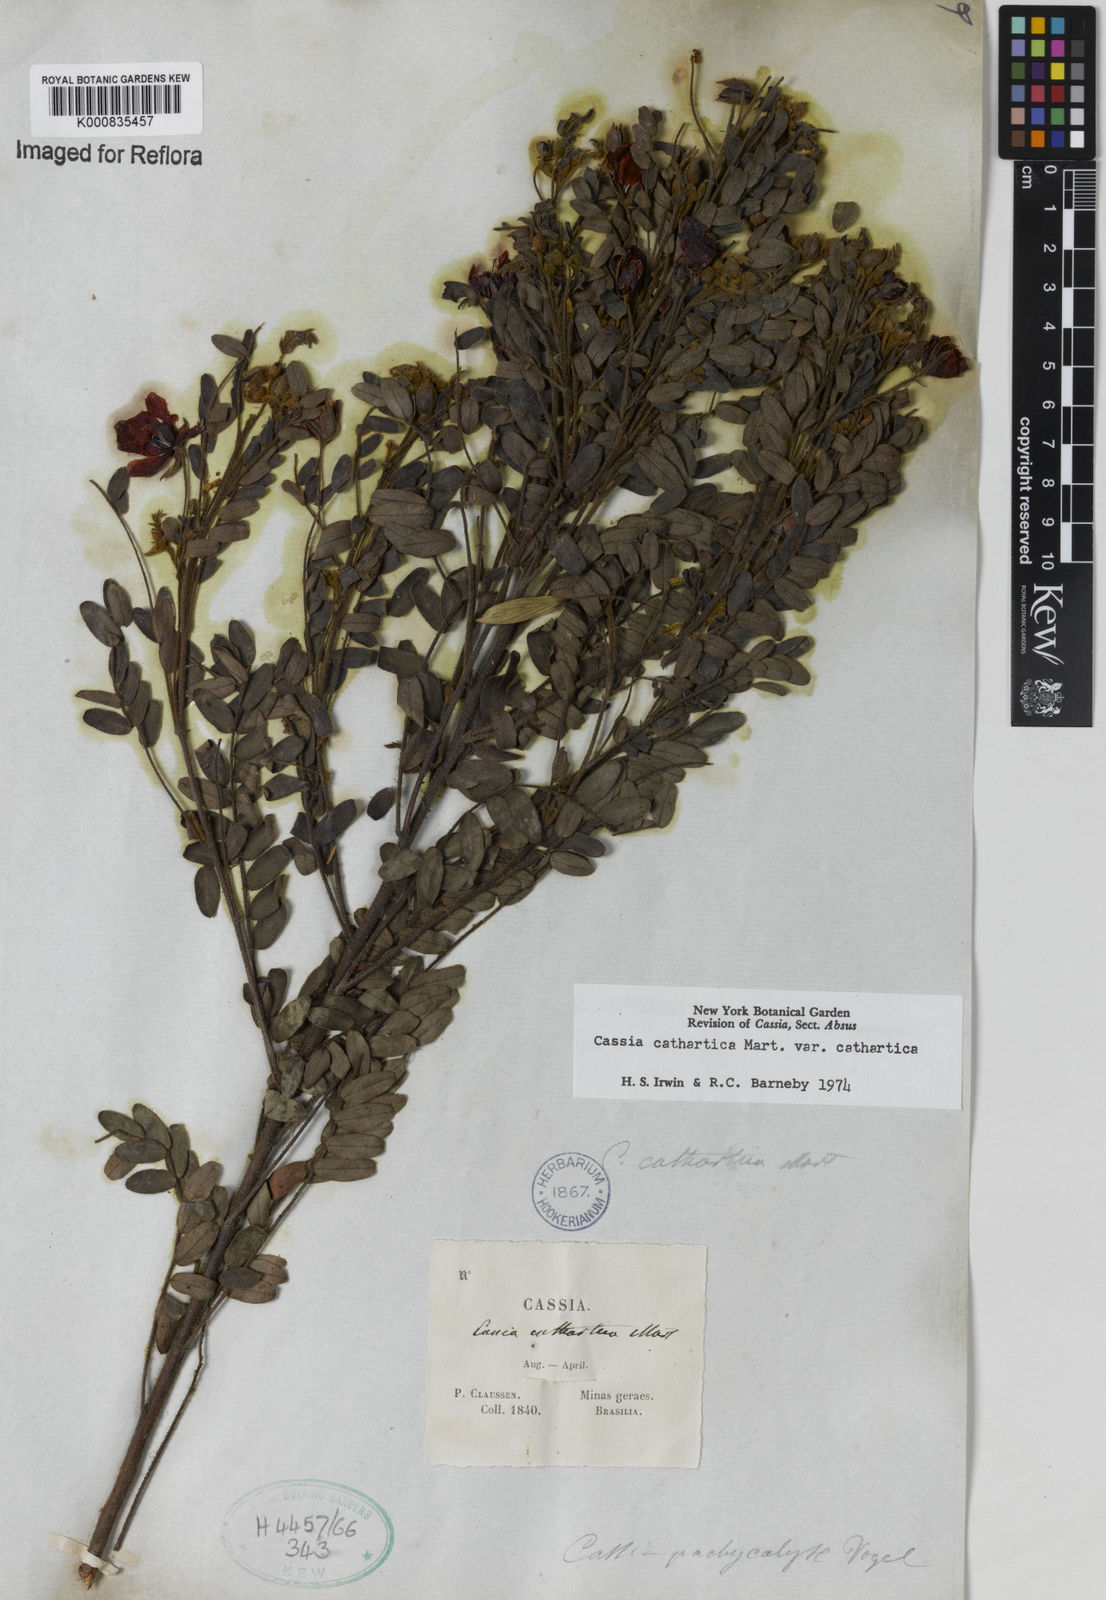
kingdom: Plantae
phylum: Tracheophyta
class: Magnoliopsida
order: Fabales
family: Fabaceae
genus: Chamaecrista
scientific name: Chamaecrista cathartica
